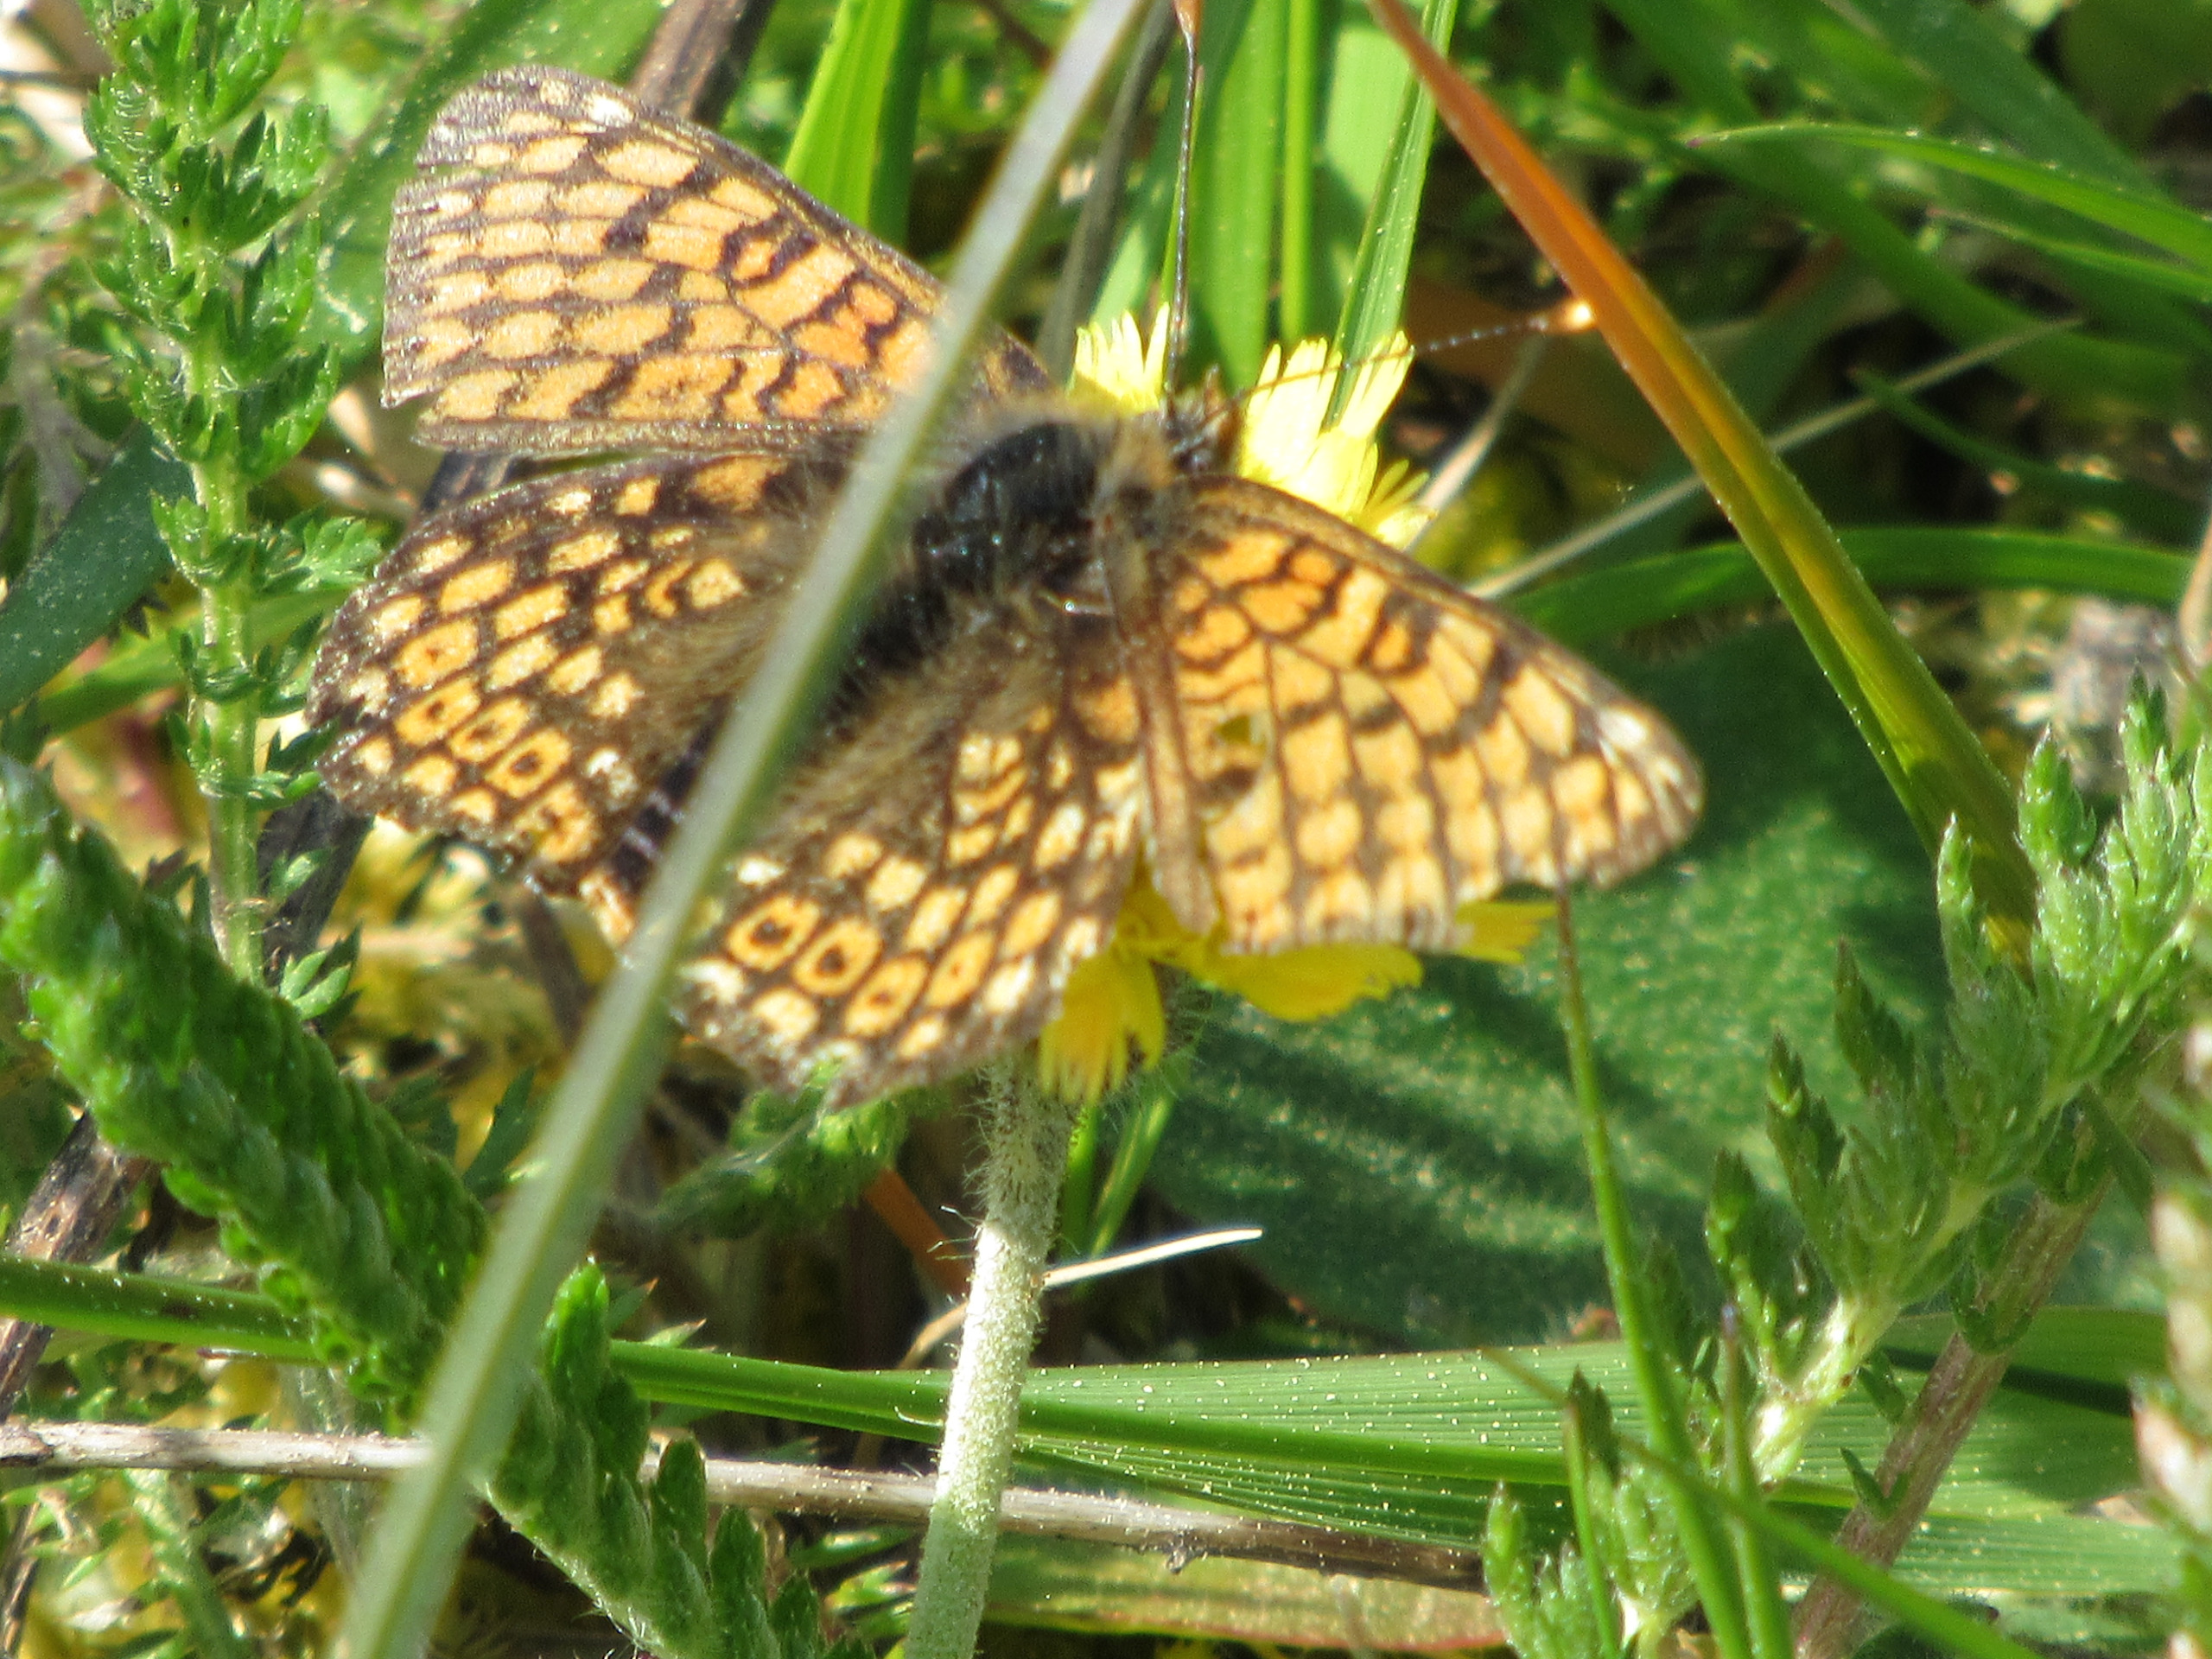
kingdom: Animalia
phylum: Arthropoda
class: Insecta
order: Lepidoptera
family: Nymphalidae
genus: Melitaea
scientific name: Melitaea cinxia
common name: Okkergul pletvinge
